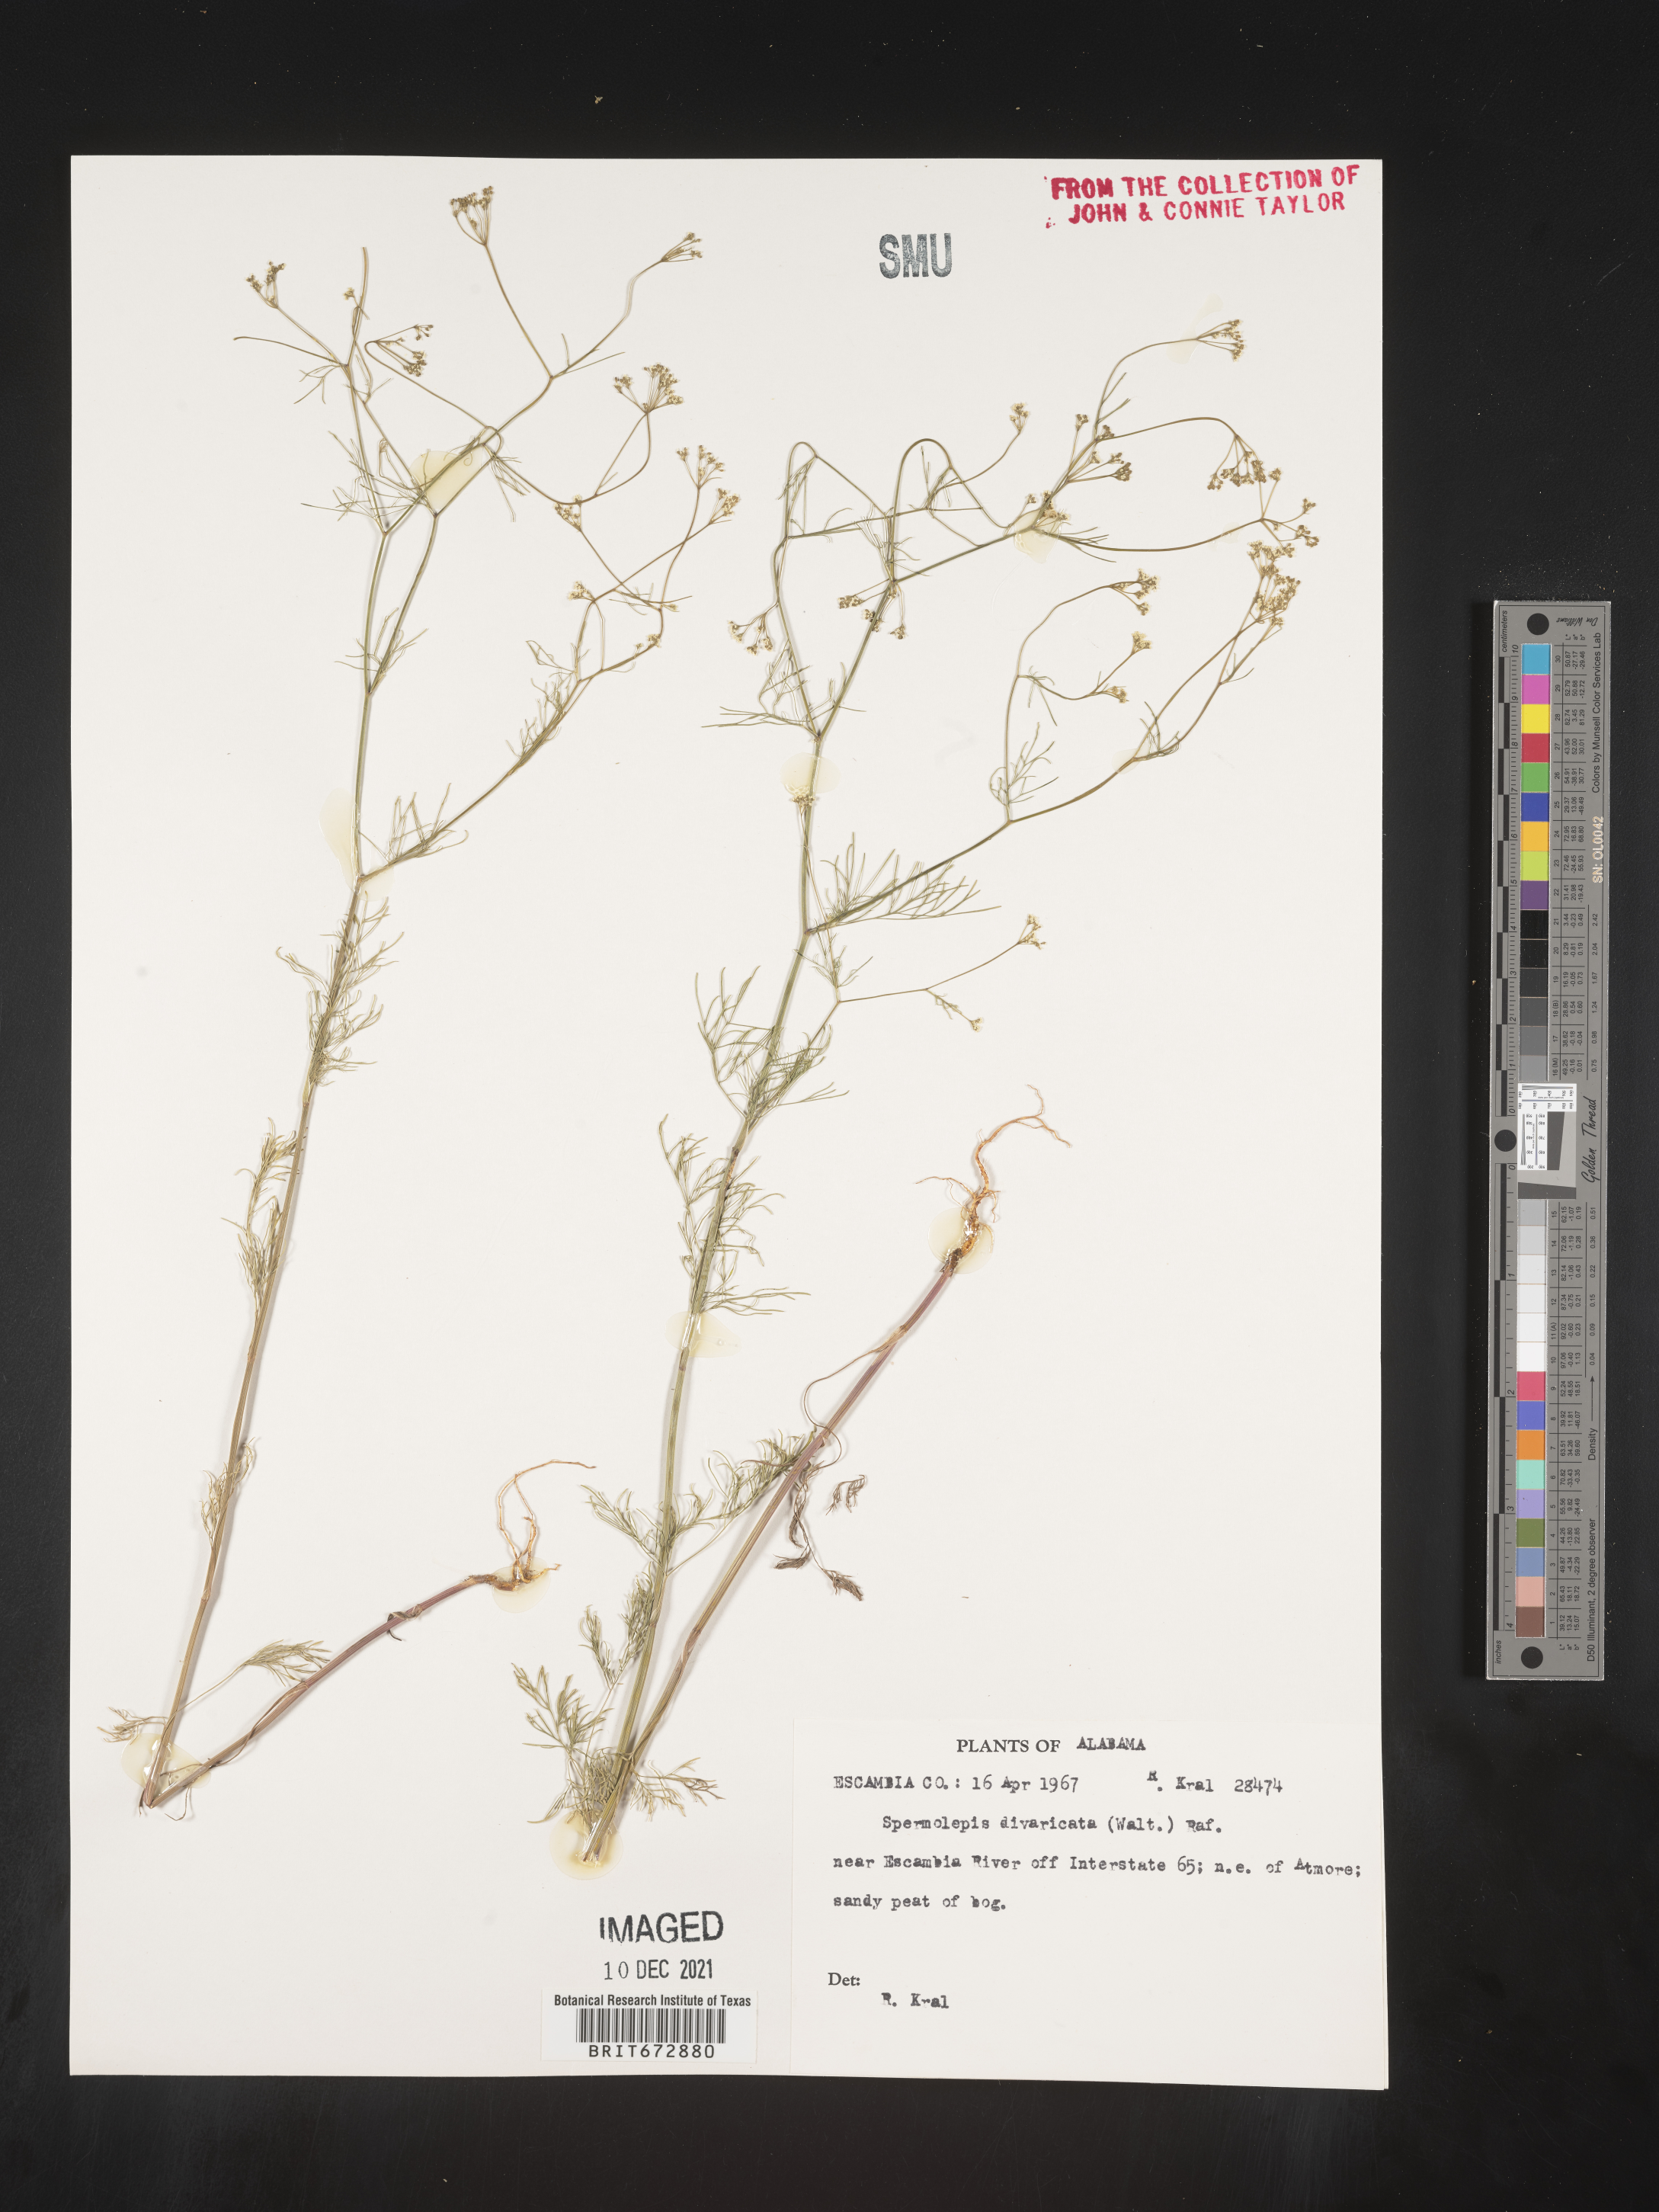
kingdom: Plantae
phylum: Tracheophyta
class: Magnoliopsida
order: Apiales
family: Apiaceae
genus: Spermolepis
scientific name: Spermolepis divaricata
